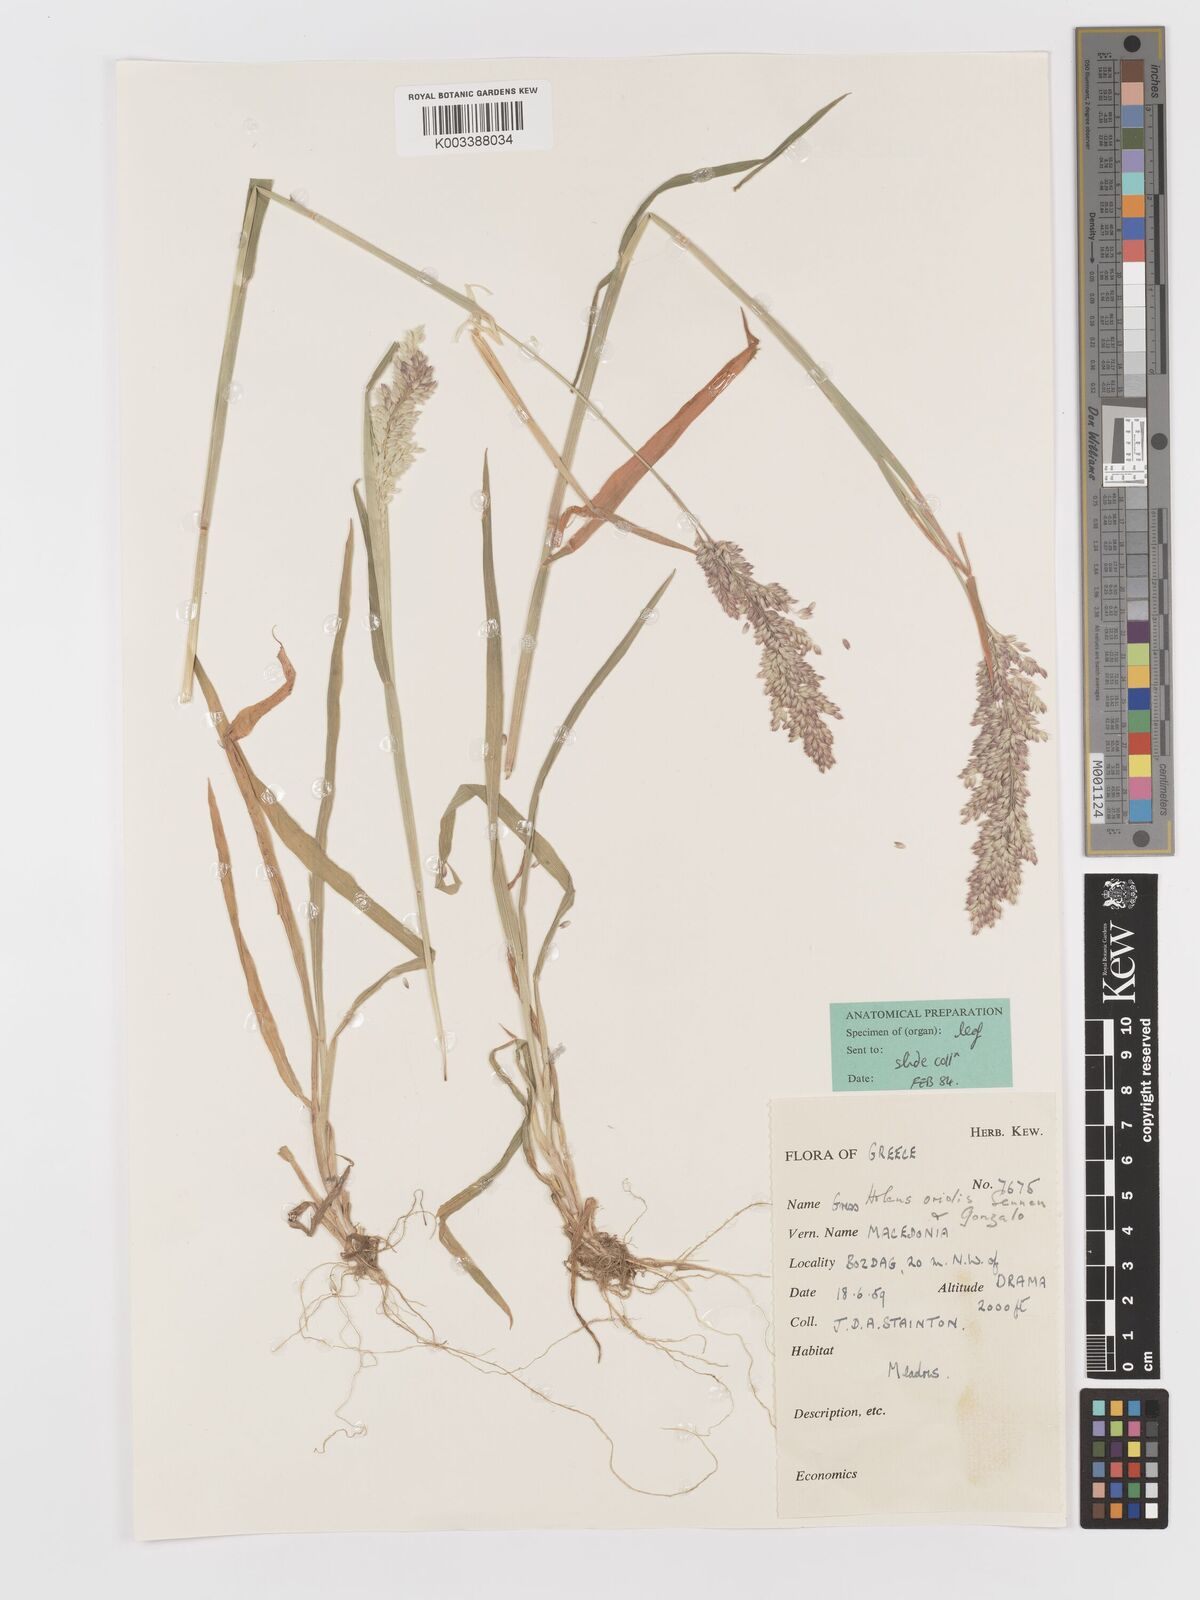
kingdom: Plantae
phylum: Tracheophyta
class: Liliopsida
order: Poales
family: Poaceae
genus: Holcus
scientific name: Holcus lanatus
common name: Yorkshire-fog
